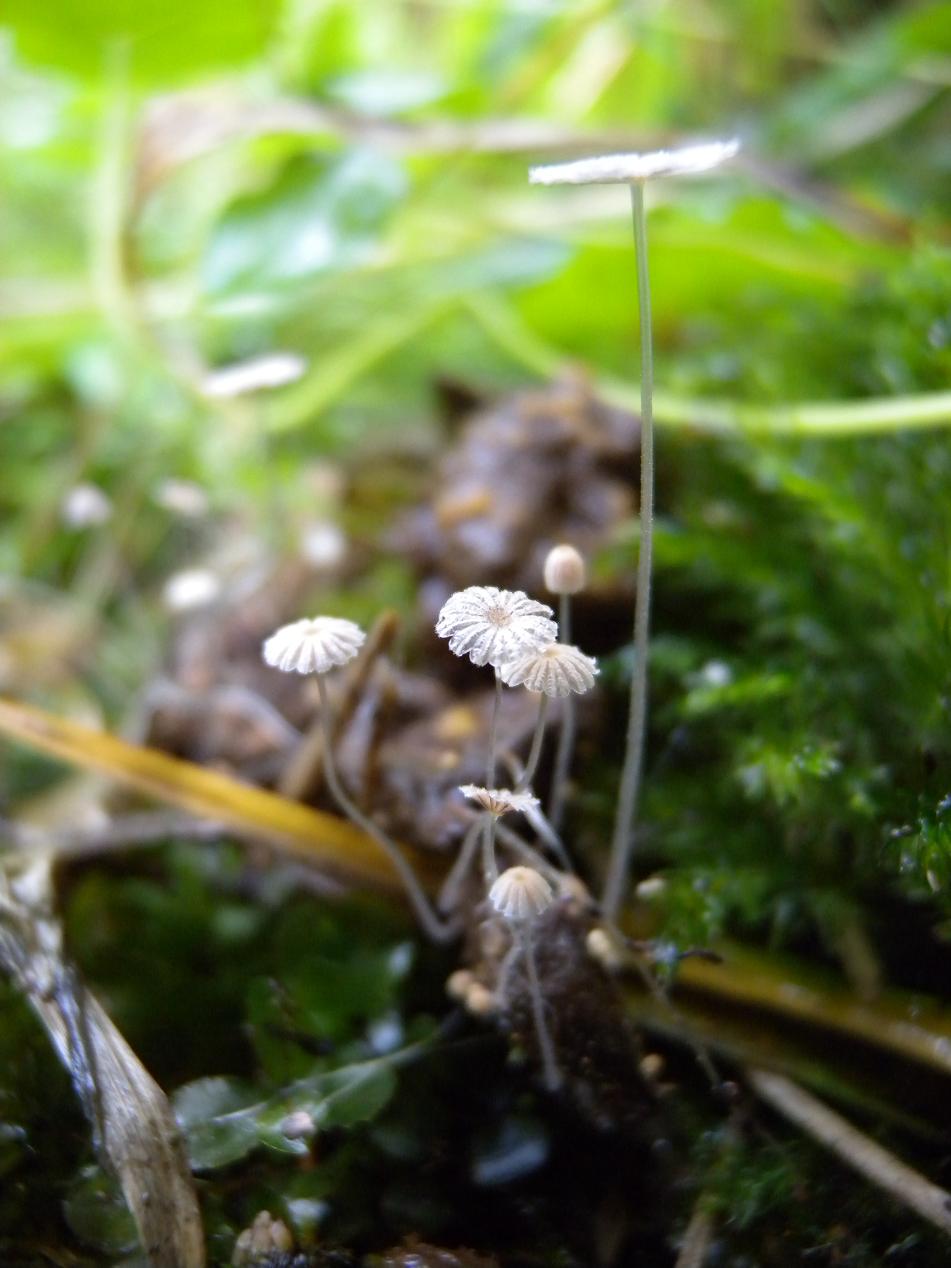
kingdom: Fungi
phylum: Basidiomycota
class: Agaricomycetes
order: Agaricales
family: Psathyrellaceae
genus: Coprinellus
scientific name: Coprinellus heptemerus
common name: hjorte-blækhat
